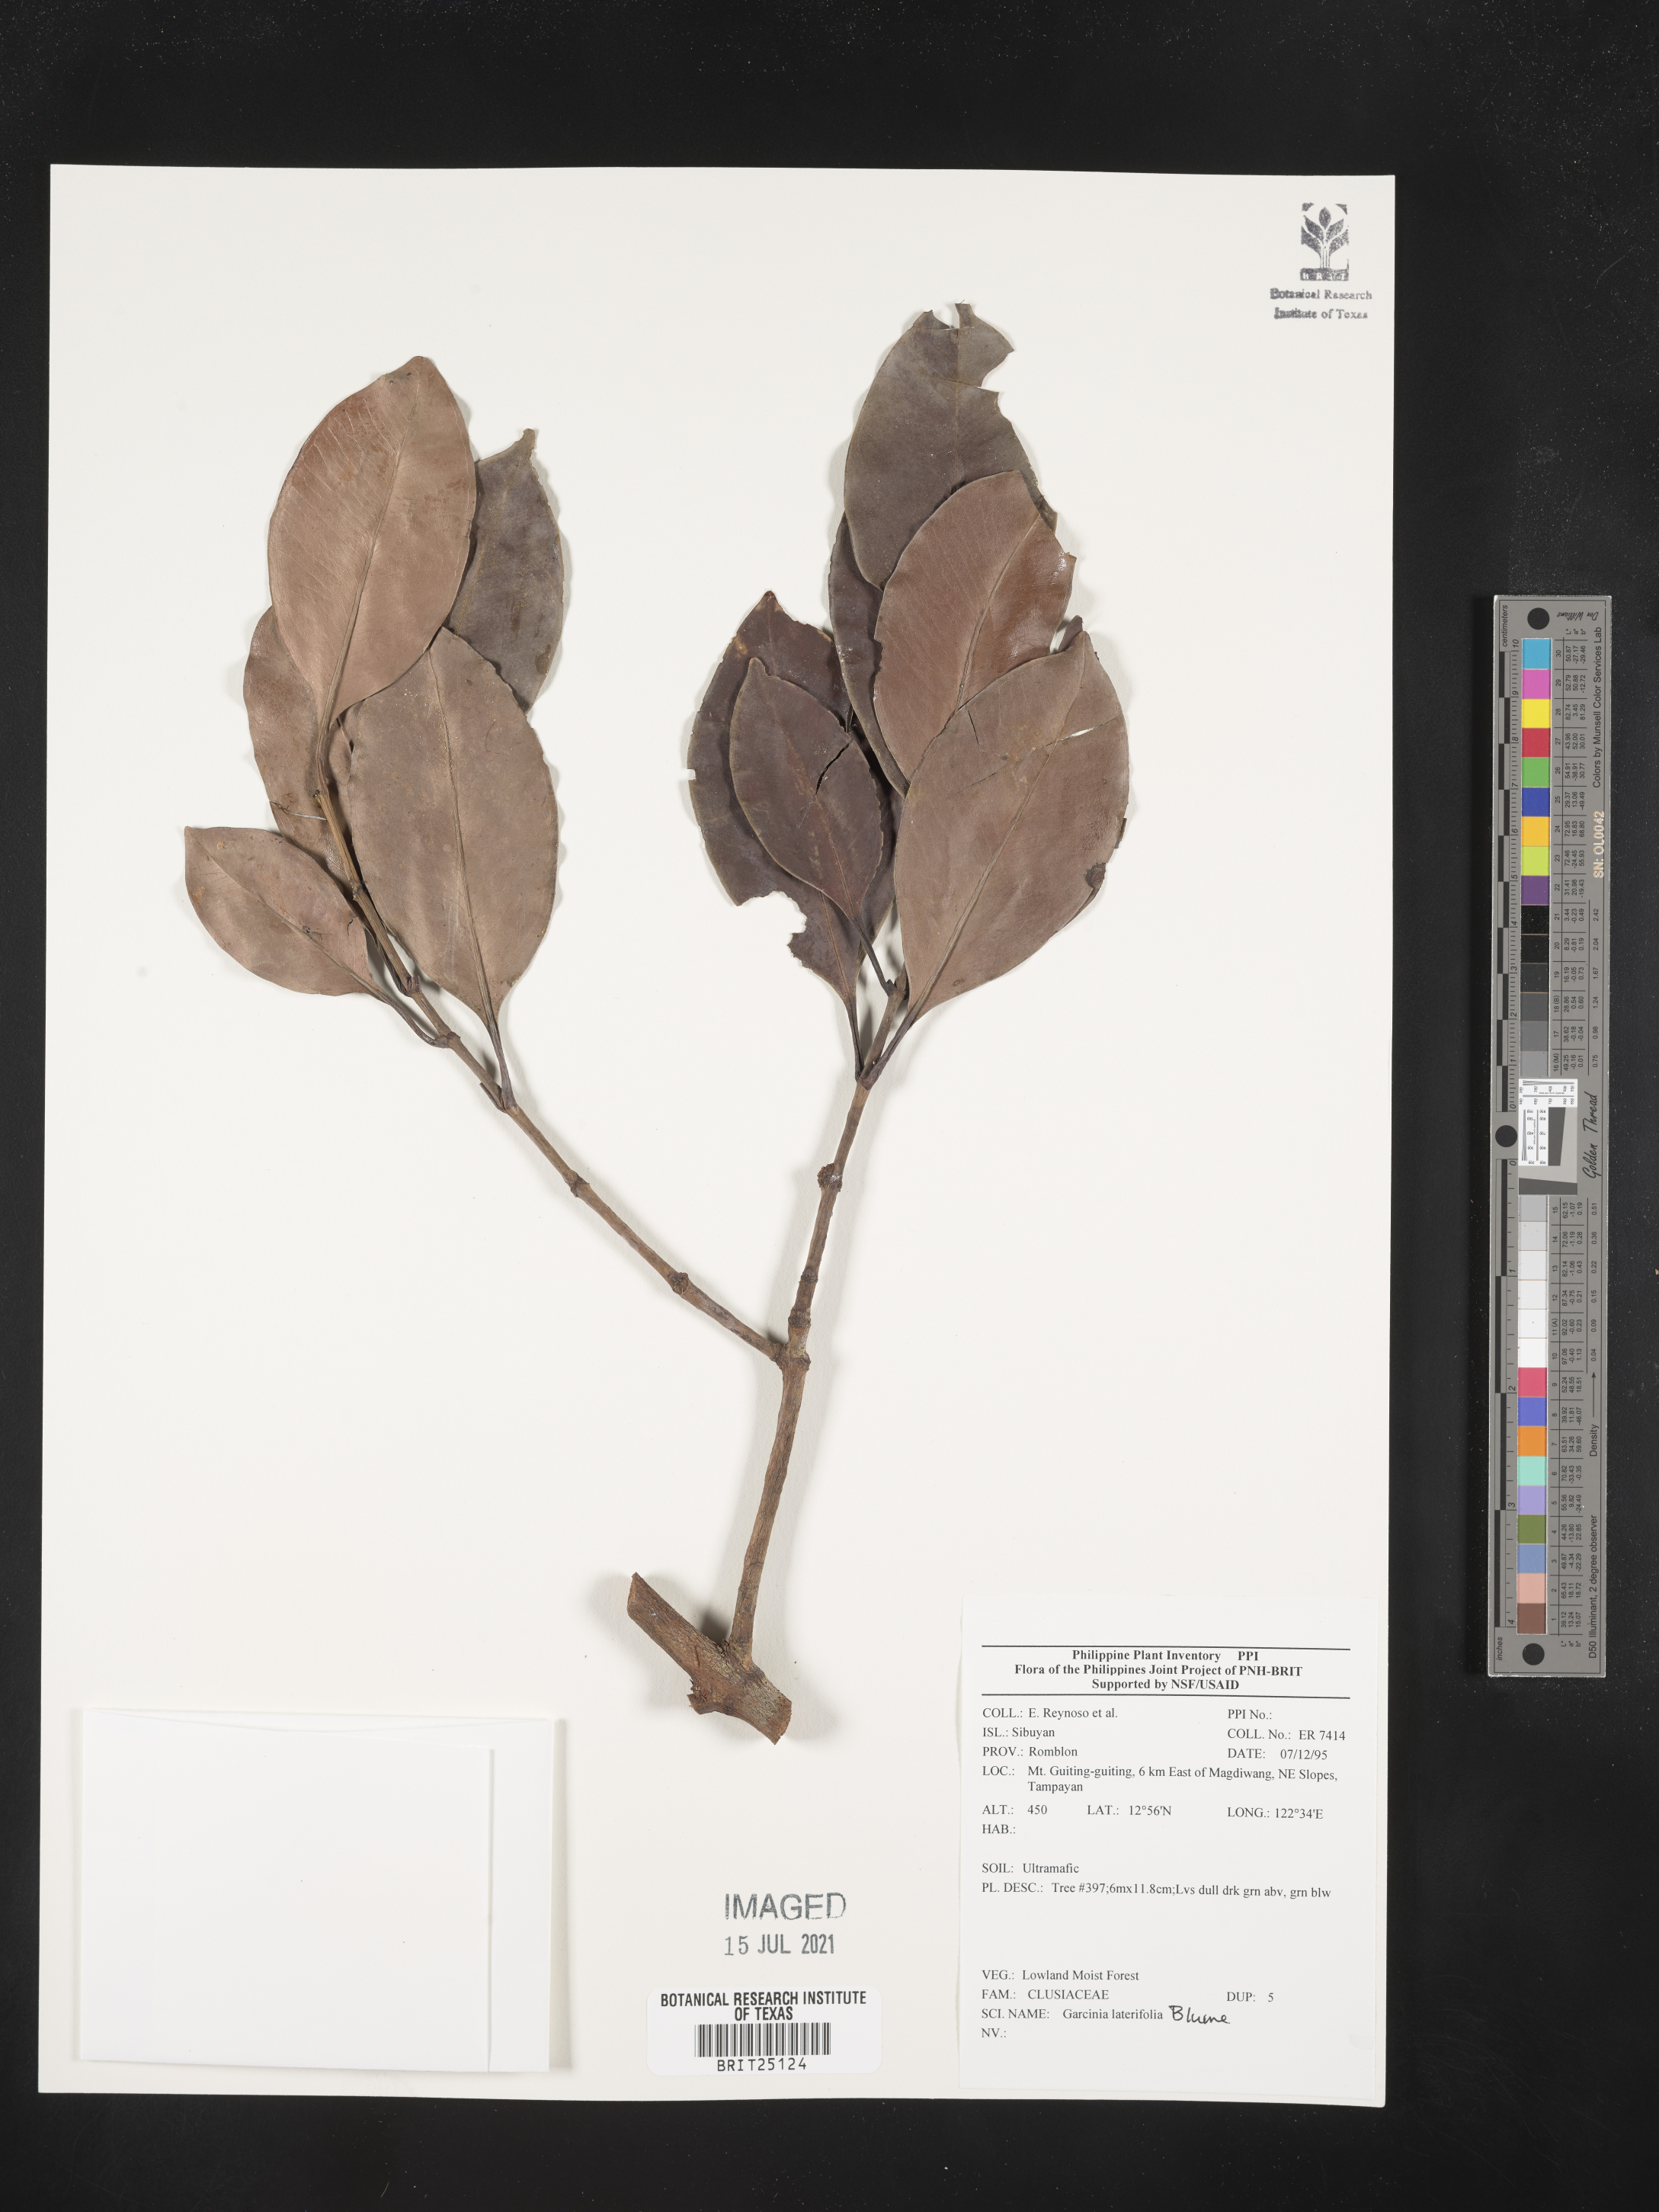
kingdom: Plantae
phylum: Tracheophyta
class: Magnoliopsida
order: Malpighiales
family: Clusiaceae
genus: Garcinia
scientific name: Garcinia lateriflora
